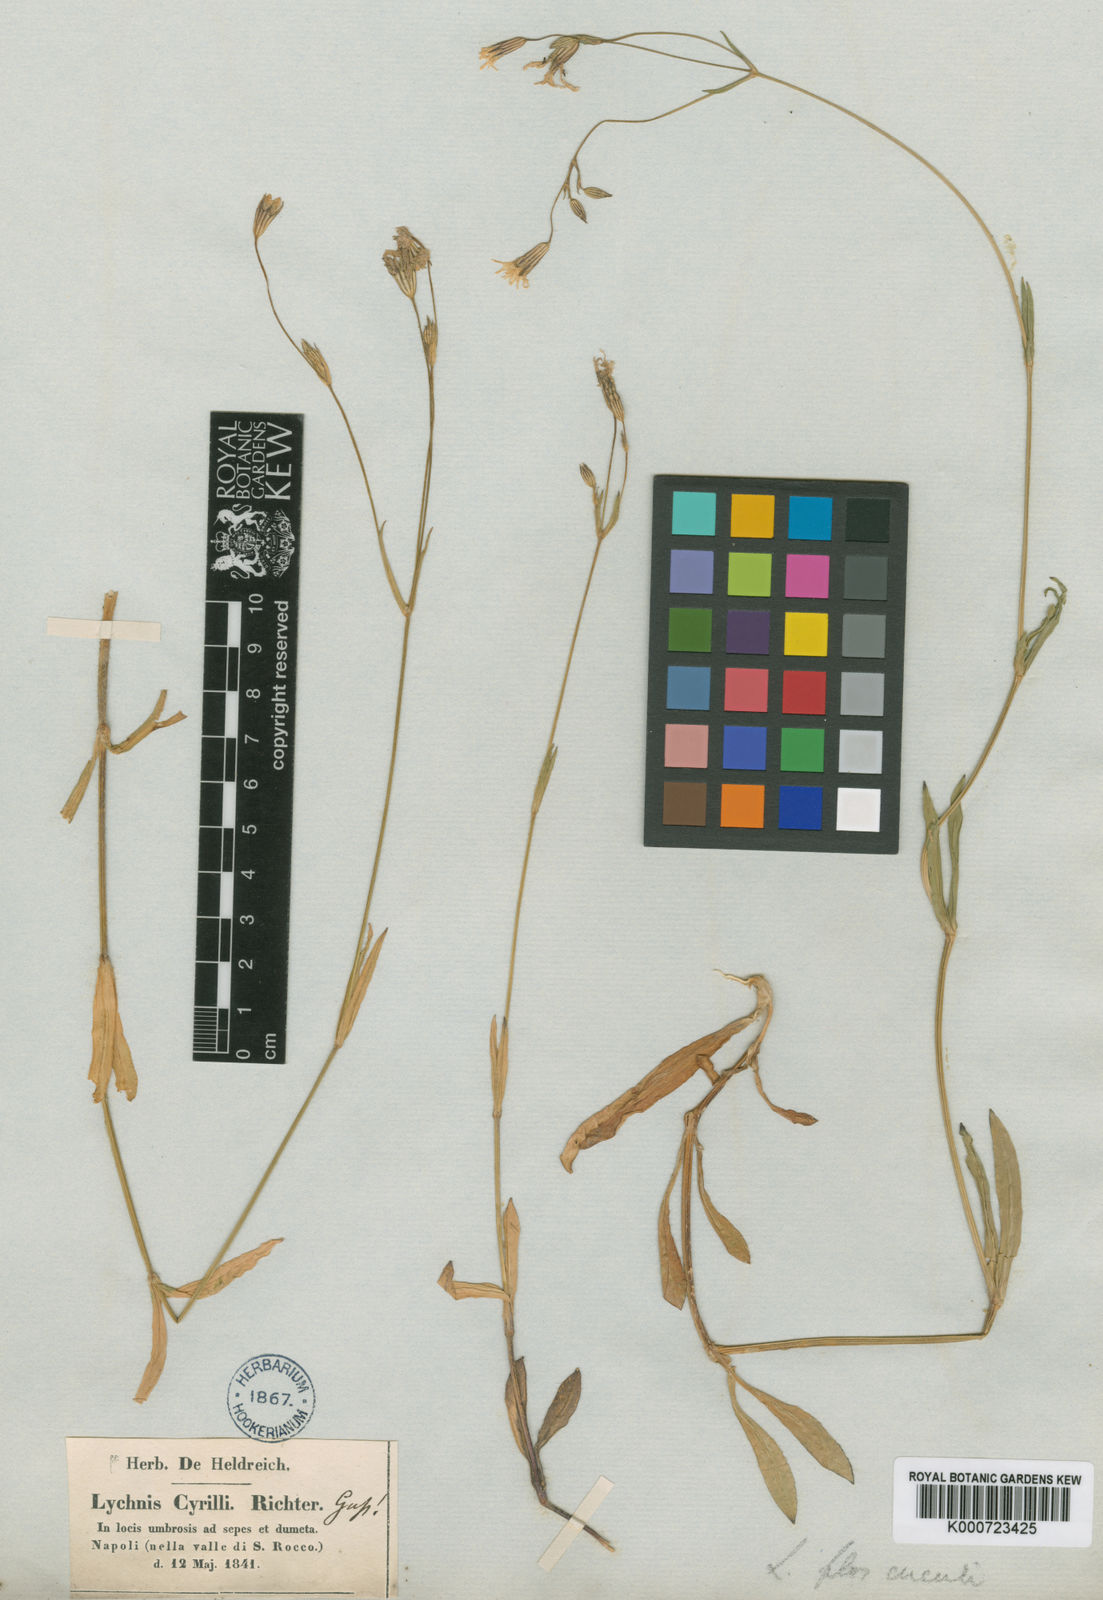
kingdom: Plantae
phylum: Tracheophyta
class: Magnoliopsida
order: Caryophyllales
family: Caryophyllaceae
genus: Silene
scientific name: Silene flos-cuculi
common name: Ragged-robin
